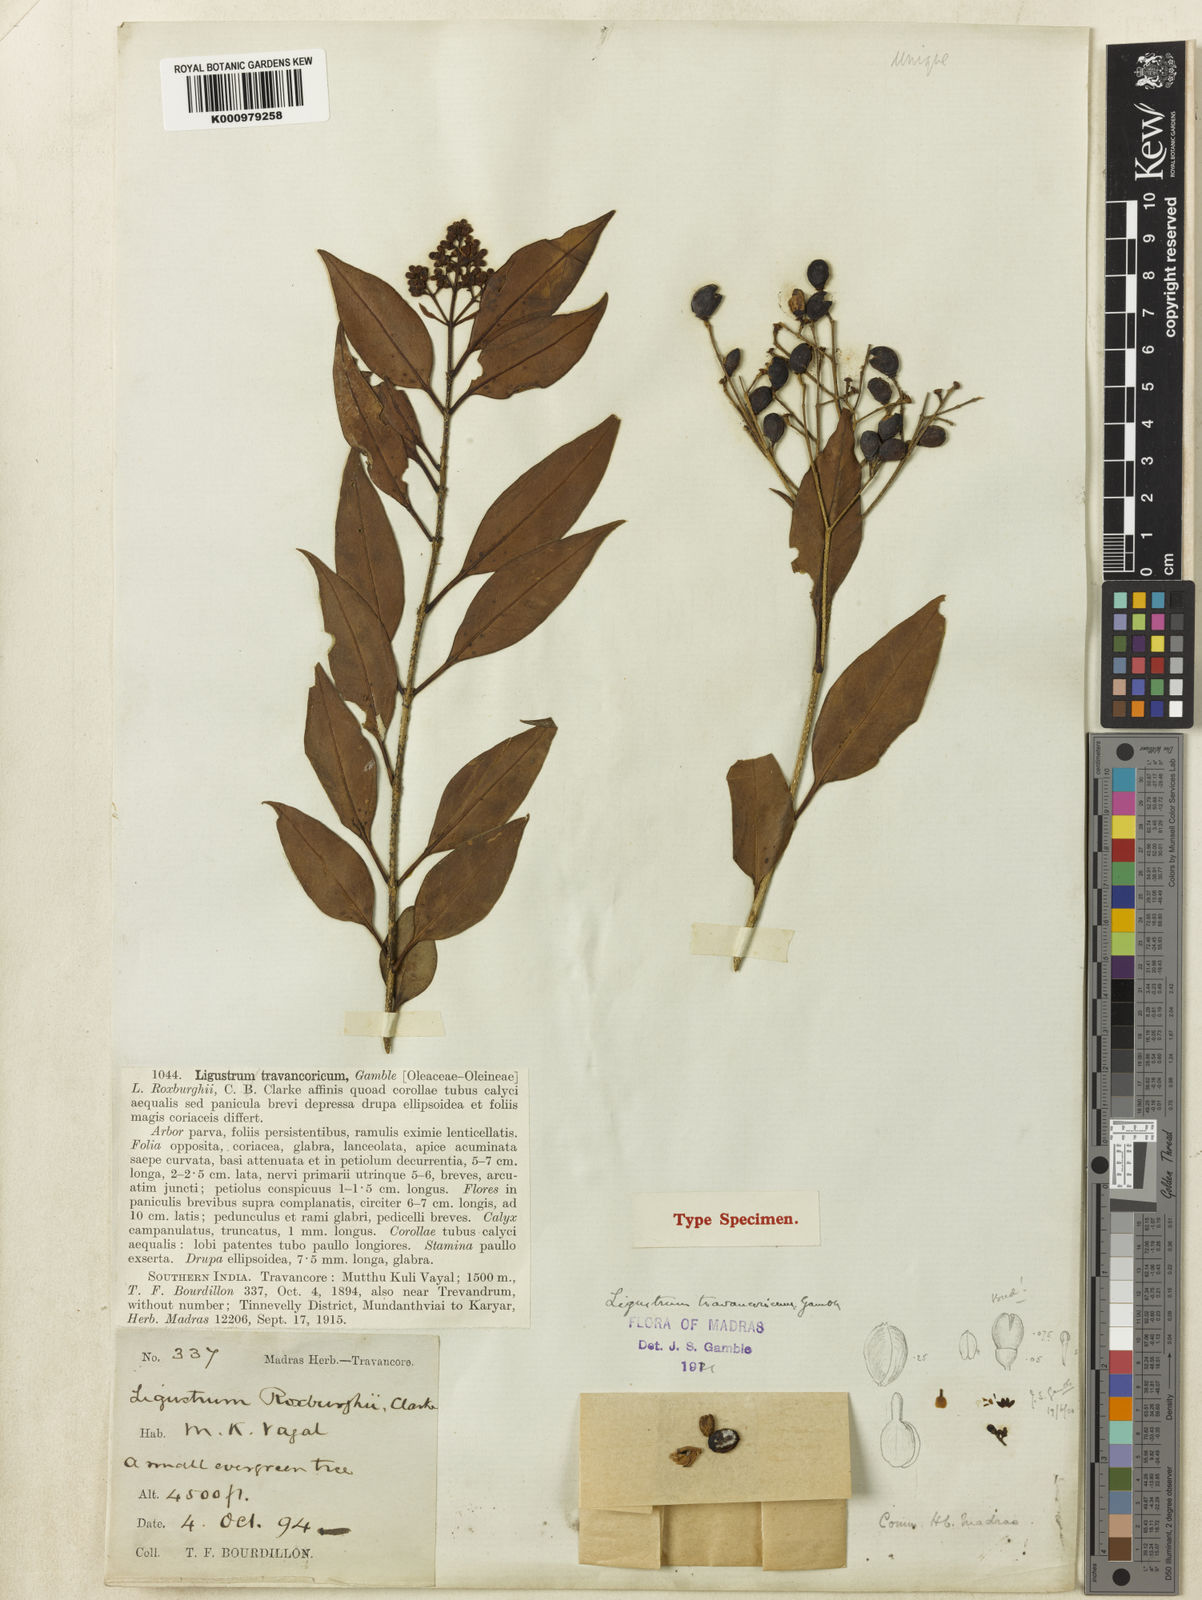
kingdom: Plantae
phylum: Tracheophyta
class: Magnoliopsida
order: Lamiales
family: Oleaceae
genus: Ligustrum
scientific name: Ligustrum robustum
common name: Tree privet
